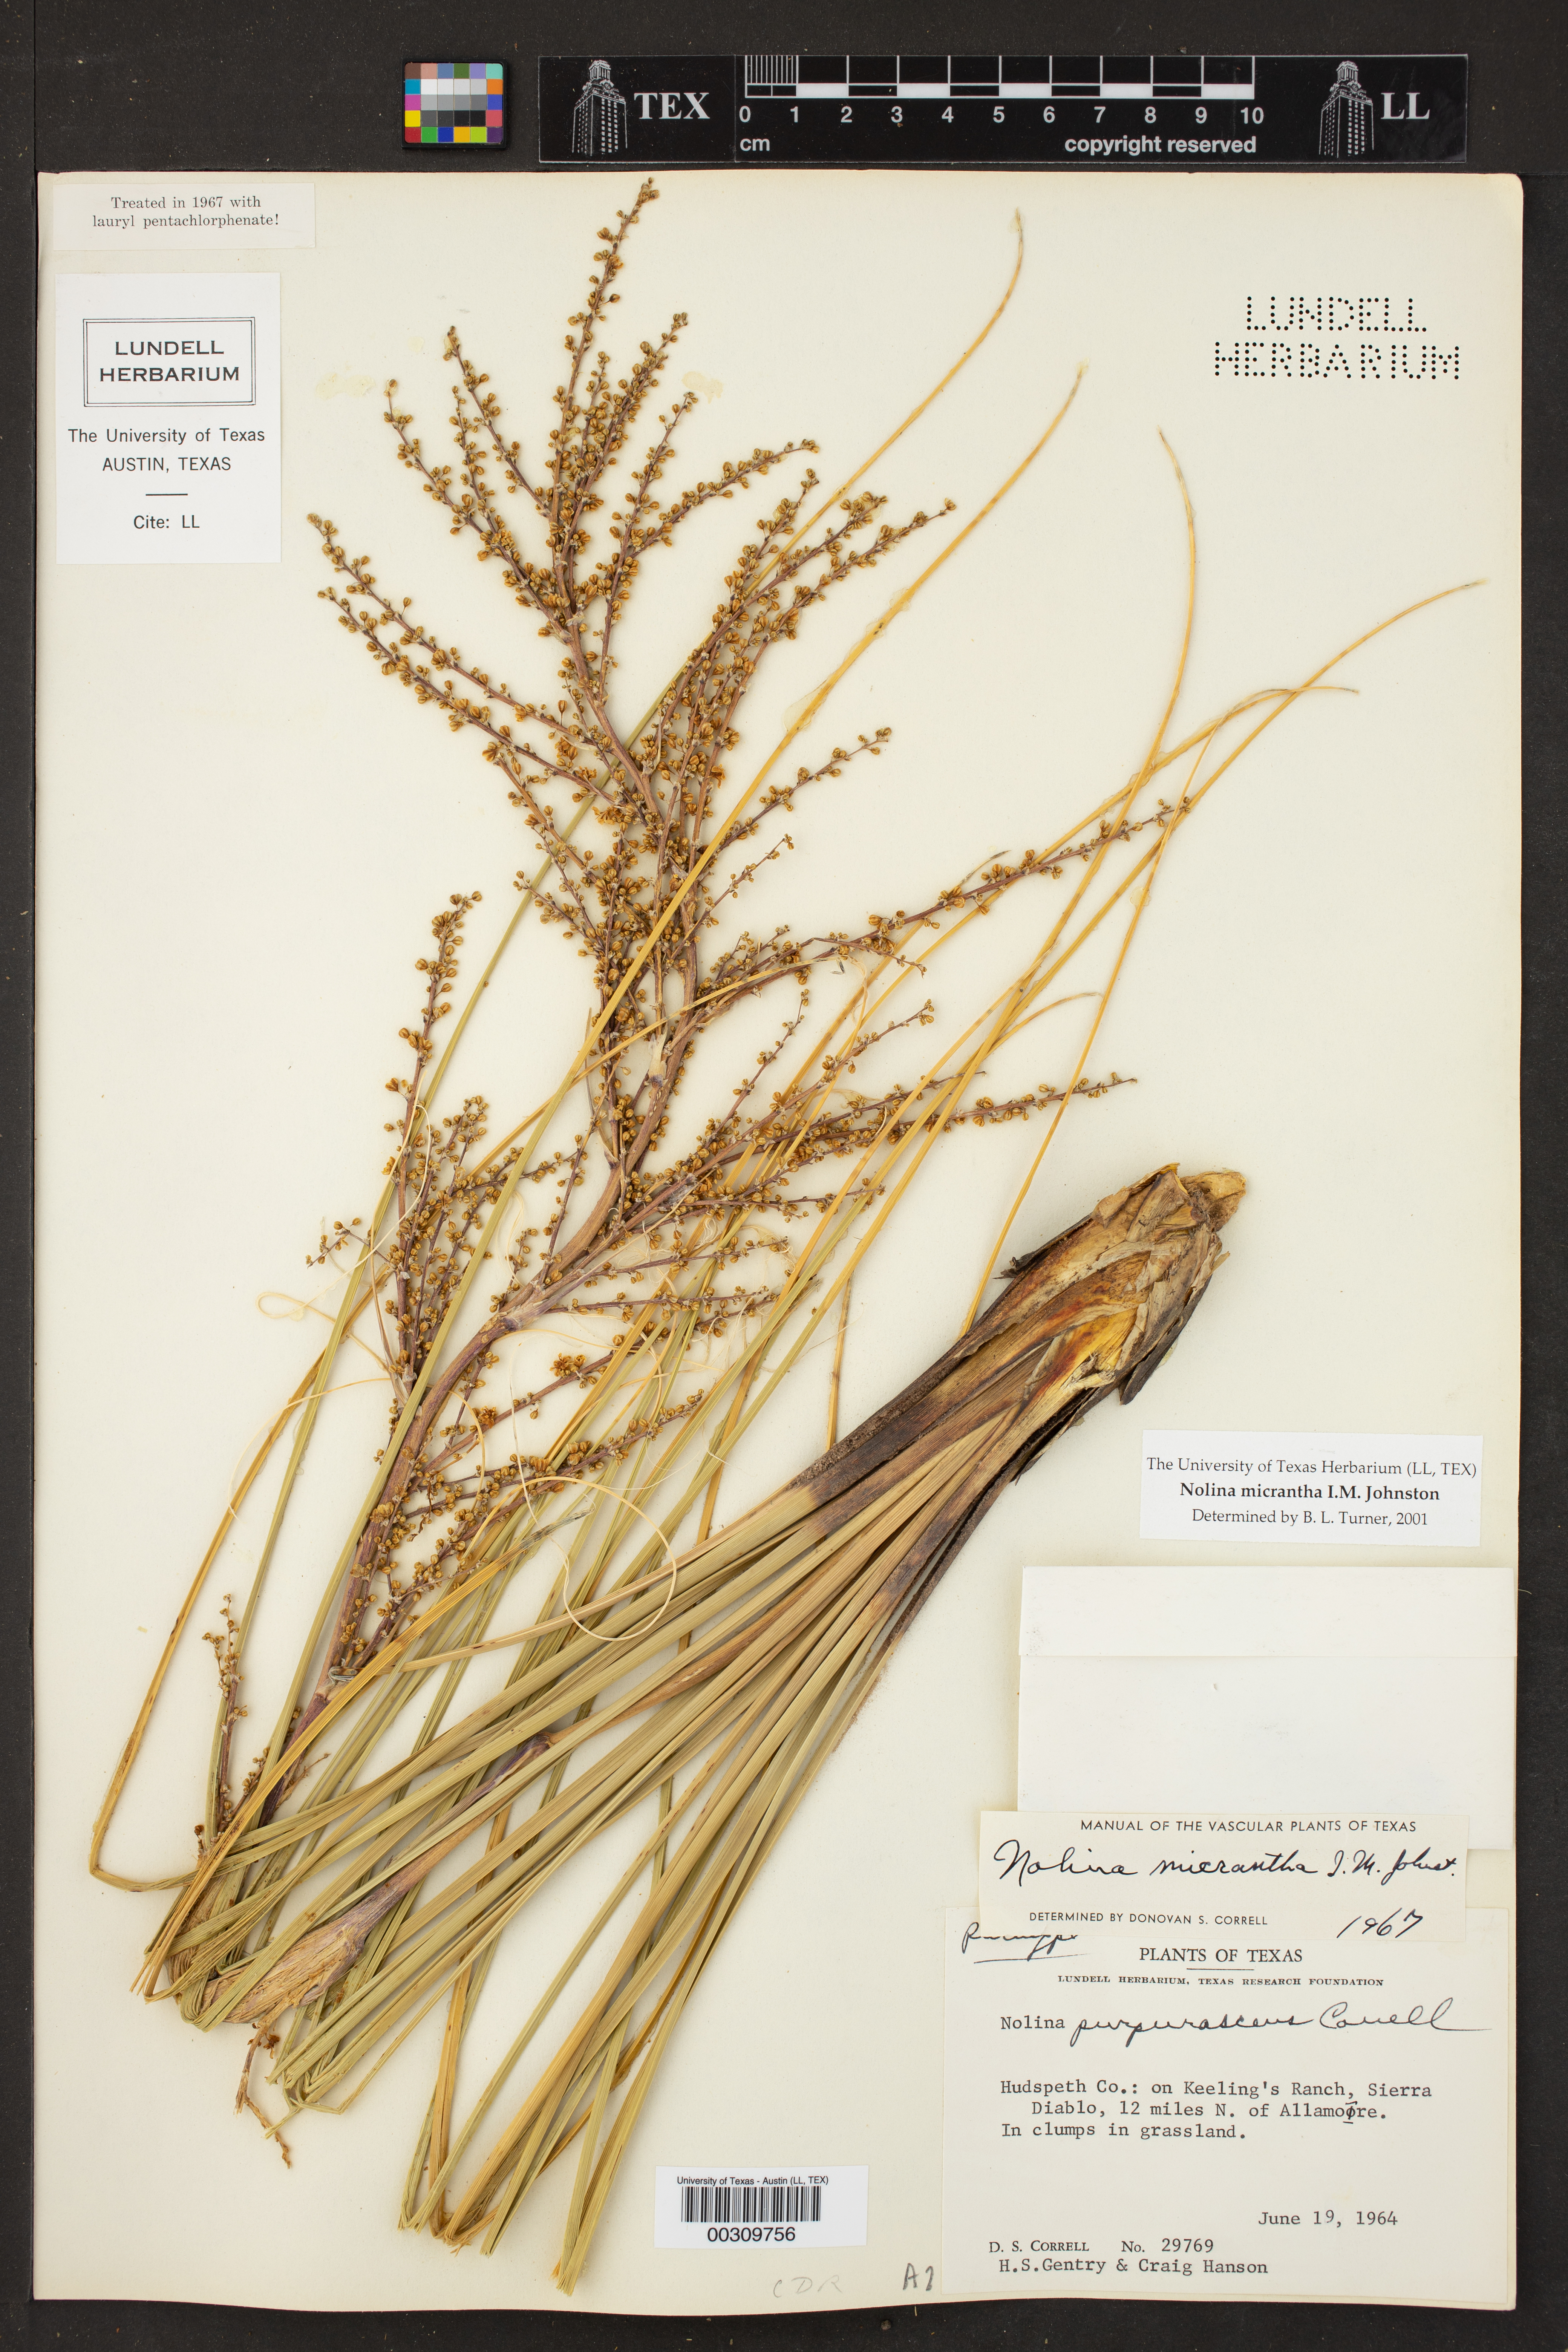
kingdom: Plantae
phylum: Tracheophyta
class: Liliopsida
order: Asparagales
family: Asparagaceae
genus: Nolina
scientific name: Nolina micrantha
